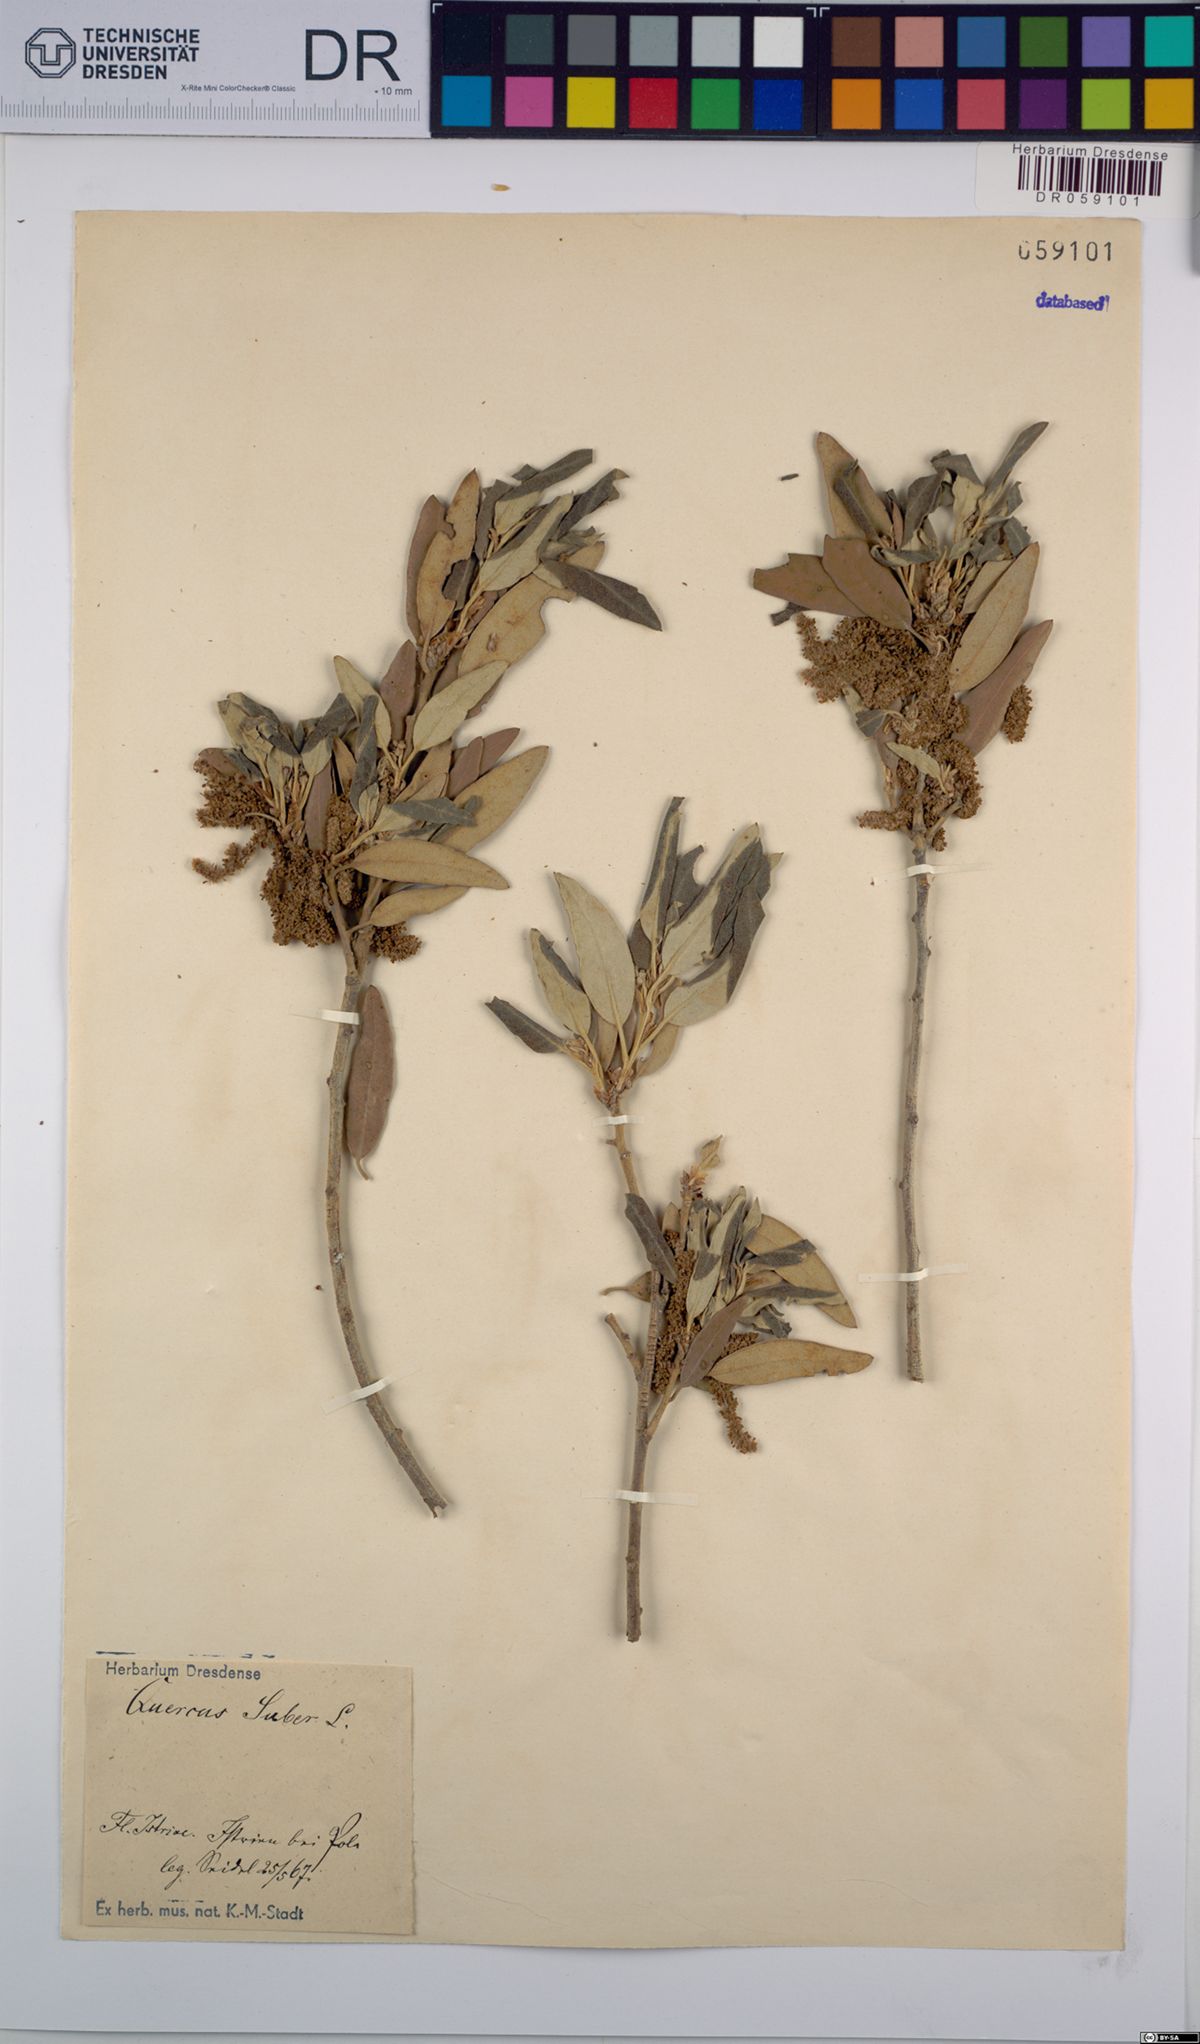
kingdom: Plantae
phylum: Tracheophyta
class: Magnoliopsida
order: Fagales
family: Fagaceae
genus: Quercus
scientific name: Quercus suber
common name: Cork oak
